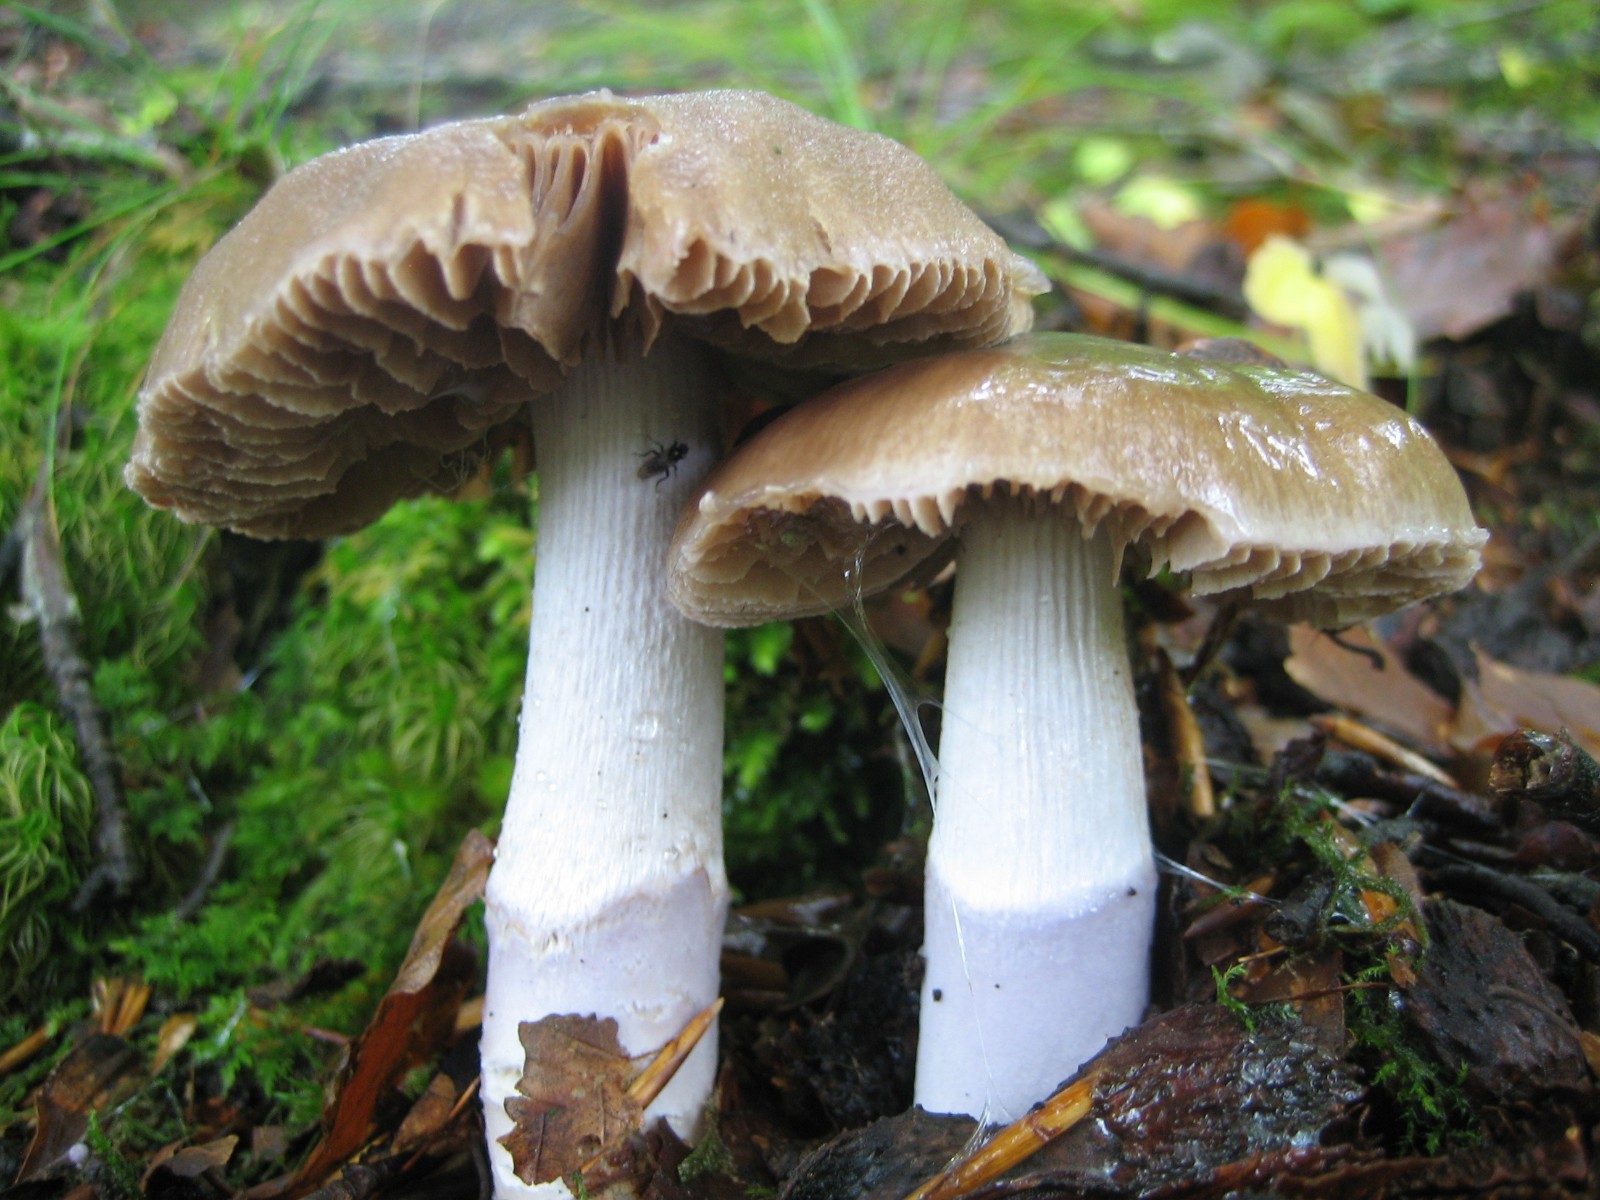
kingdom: Fungi
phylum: Basidiomycota
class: Agaricomycetes
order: Agaricales
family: Cortinariaceae
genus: Cortinarius
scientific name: Cortinarius elatior
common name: høj slørhat
